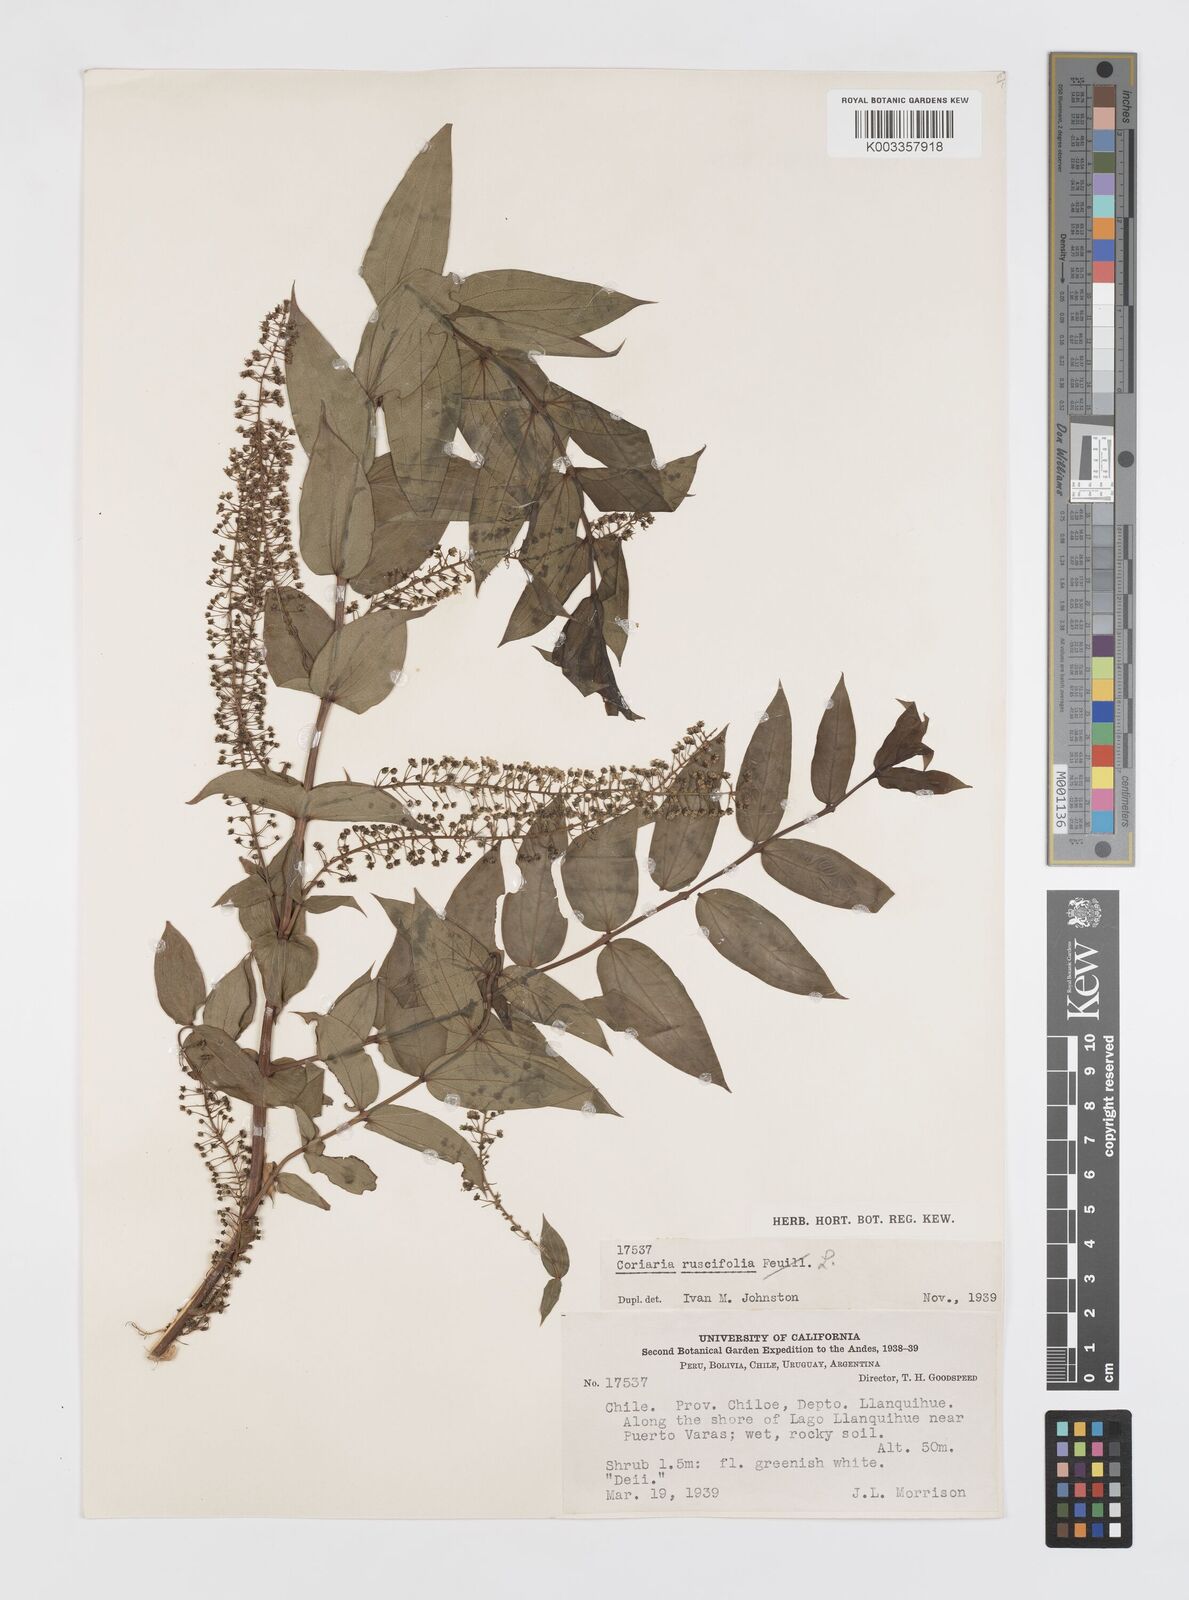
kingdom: Plantae
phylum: Tracheophyta
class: Magnoliopsida
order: Cucurbitales
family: Coriariaceae
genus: Coriaria
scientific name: Coriaria ruscifolia
